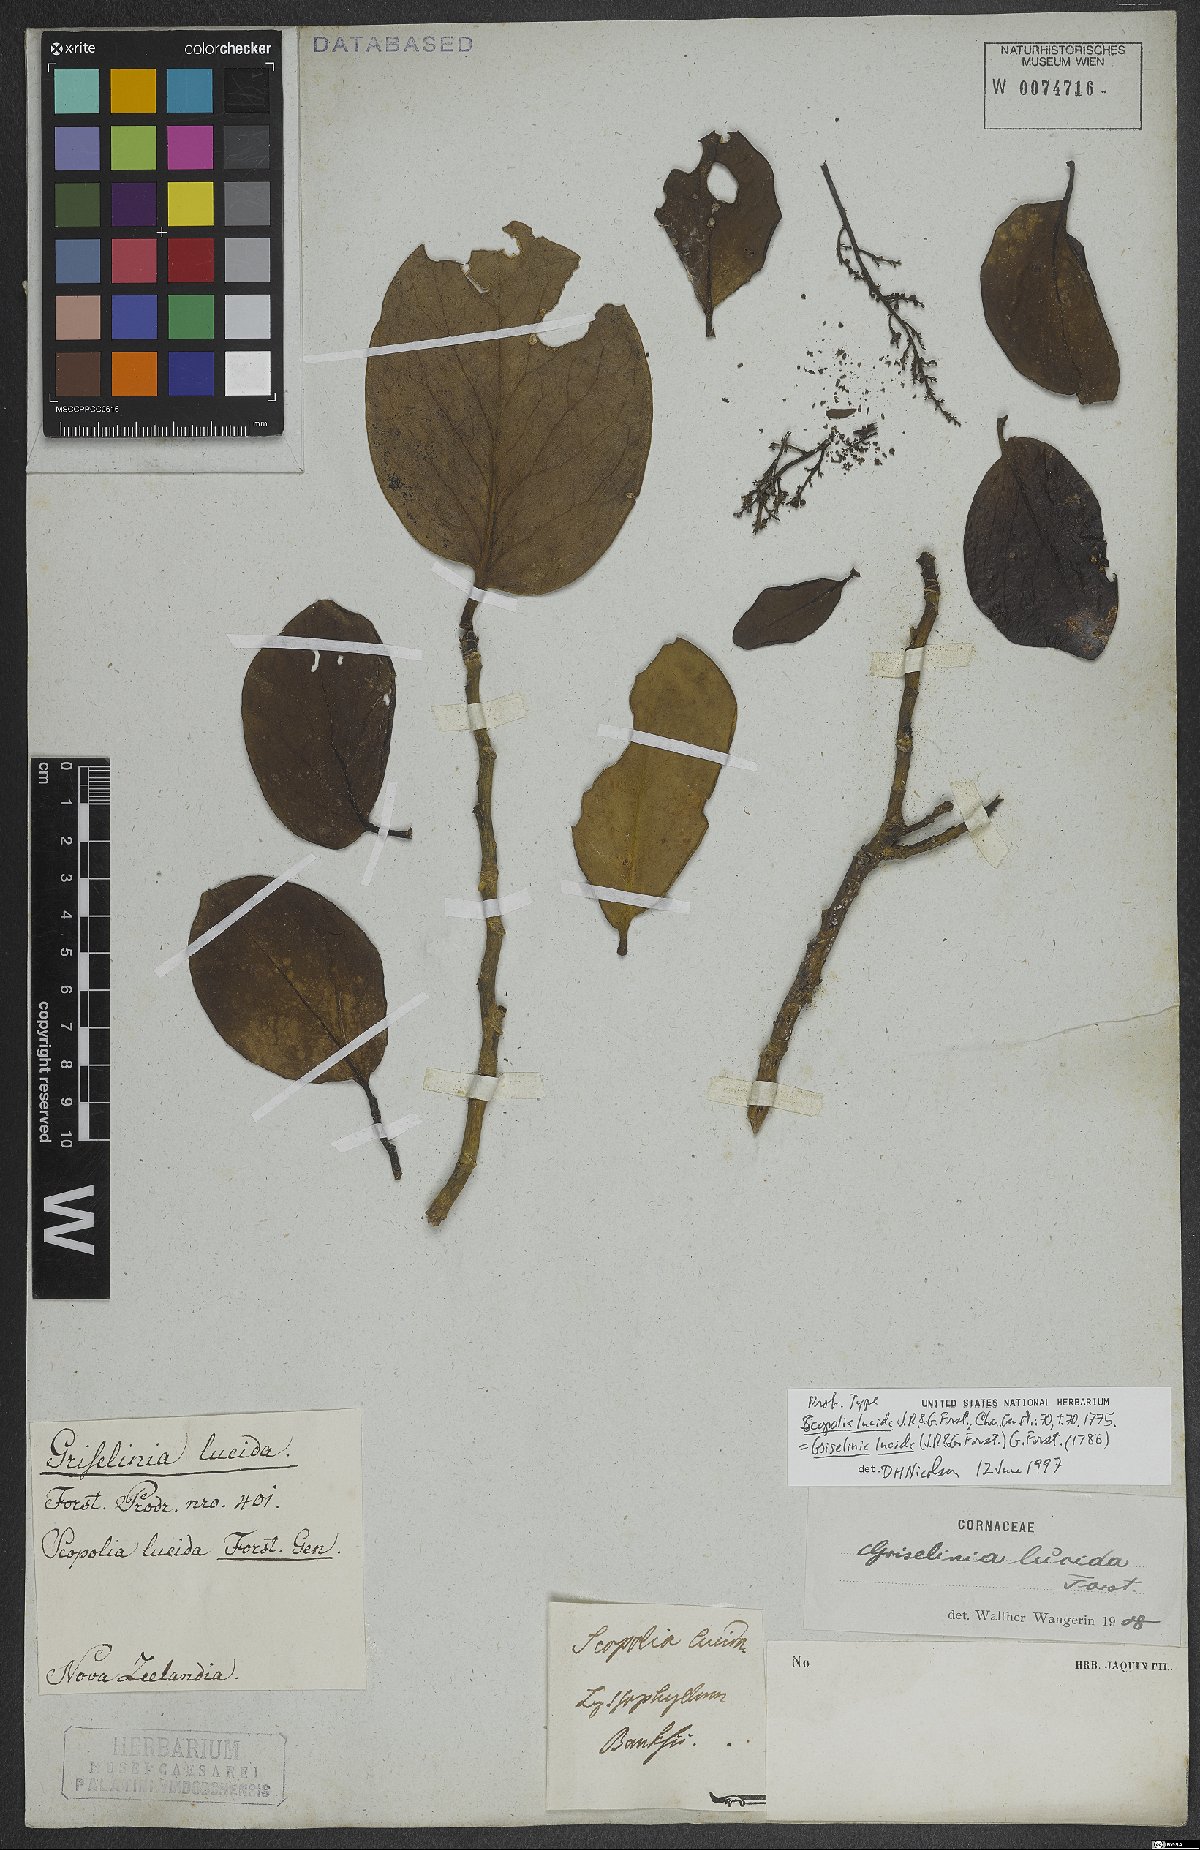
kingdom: Plantae
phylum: Tracheophyta
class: Magnoliopsida
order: Apiales
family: Griseliniaceae
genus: Griselinia
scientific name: Griselinia lucida
